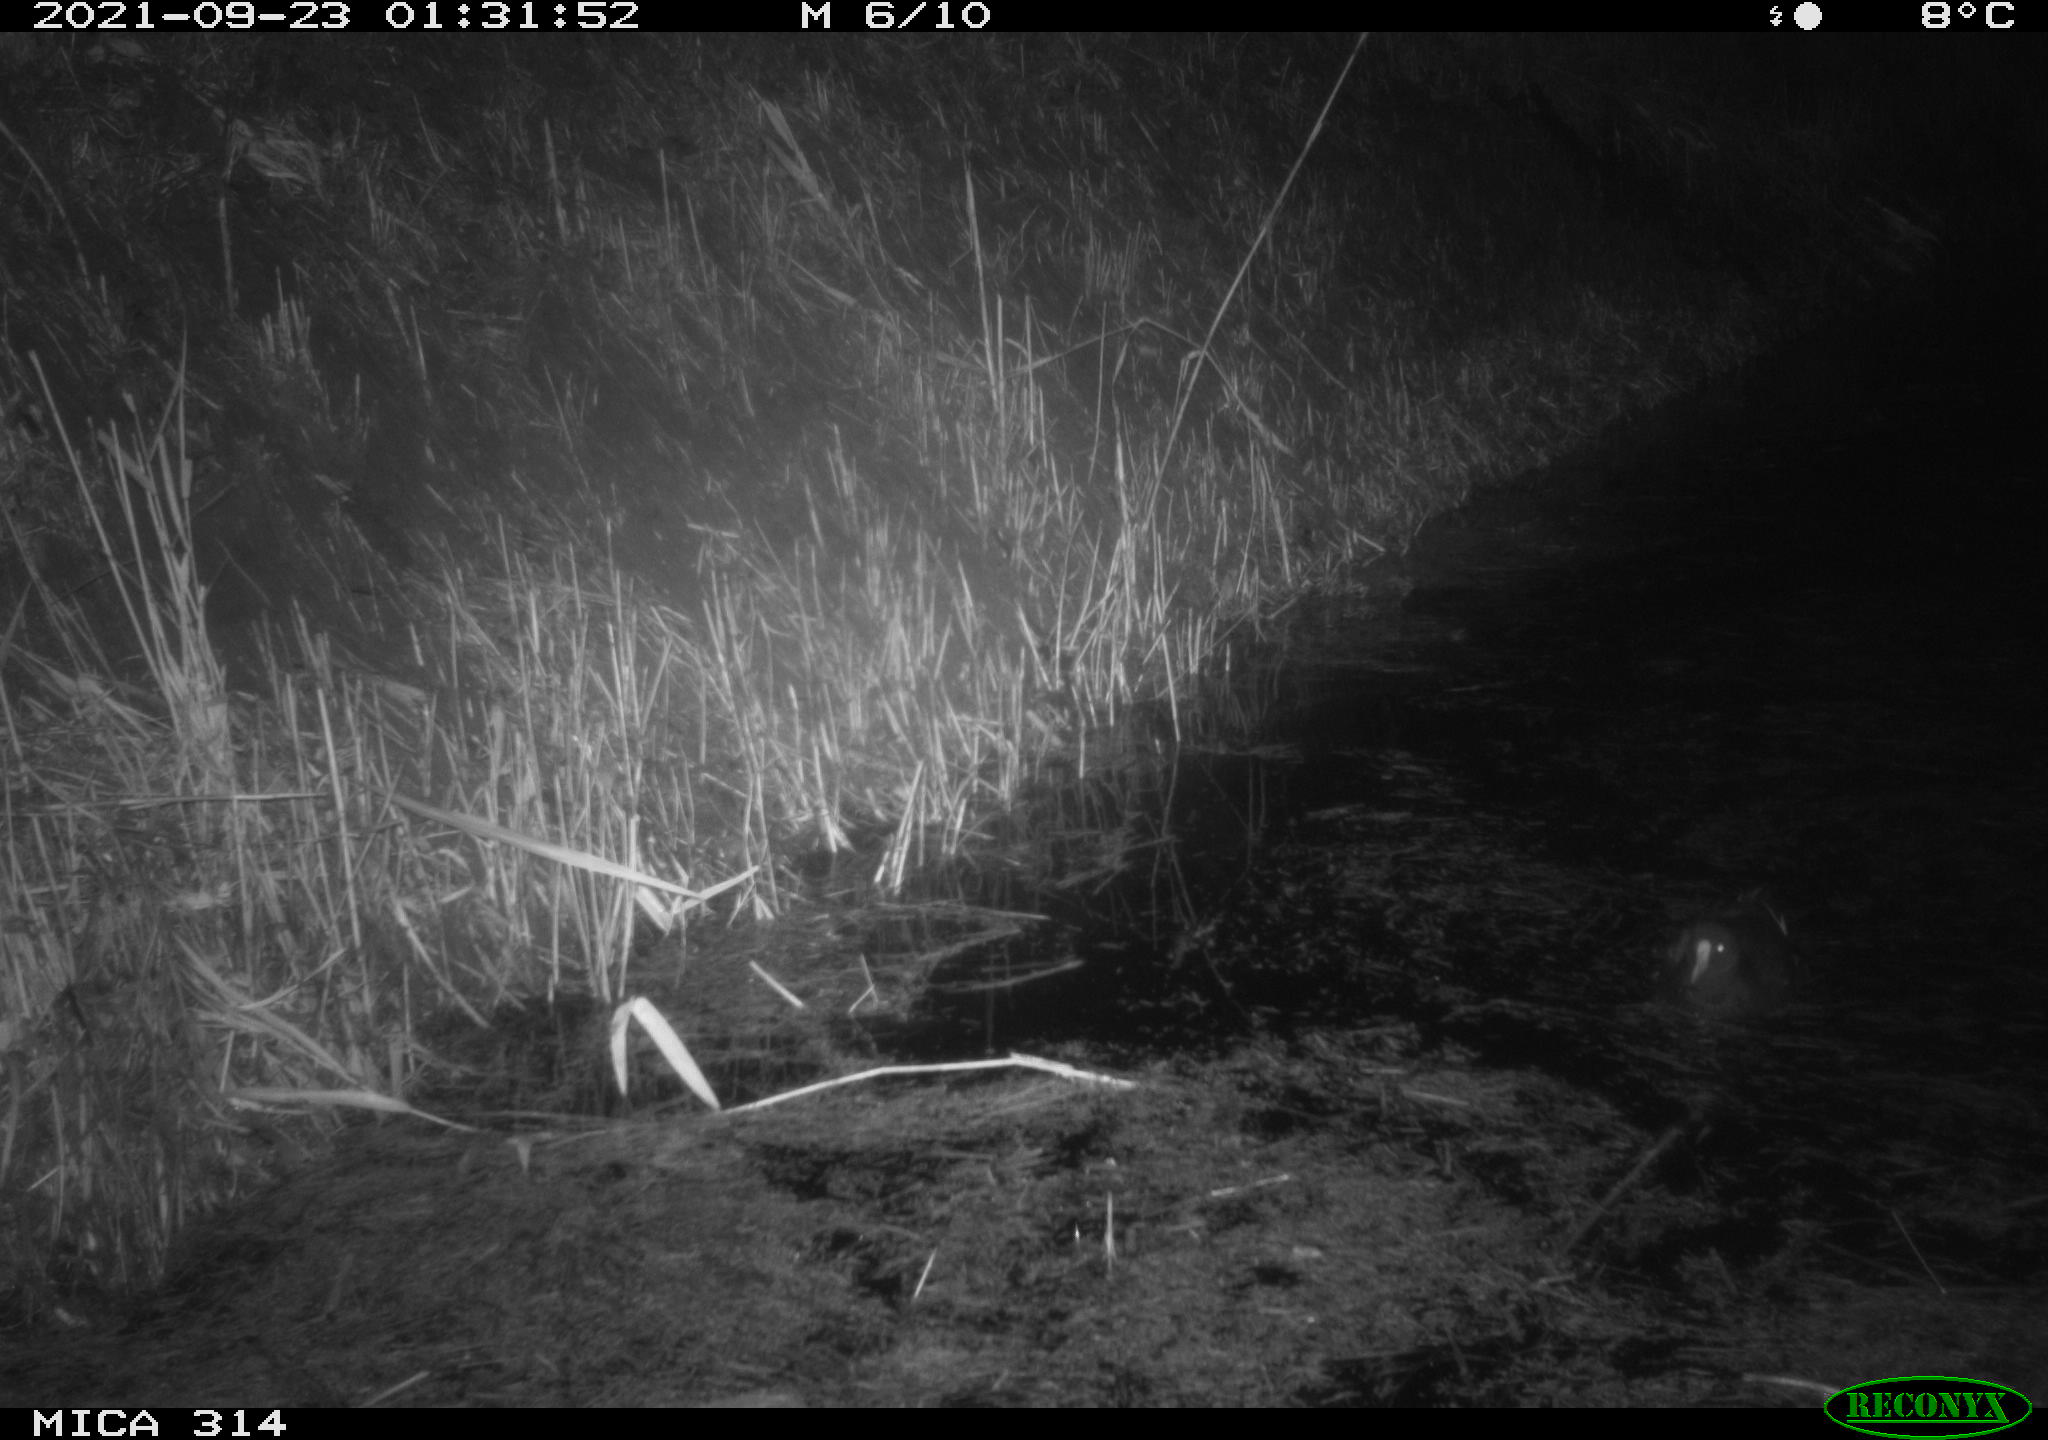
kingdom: Animalia
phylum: Chordata
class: Aves
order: Gruiformes
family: Rallidae
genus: Gallinula
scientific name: Gallinula chloropus
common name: Common moorhen
